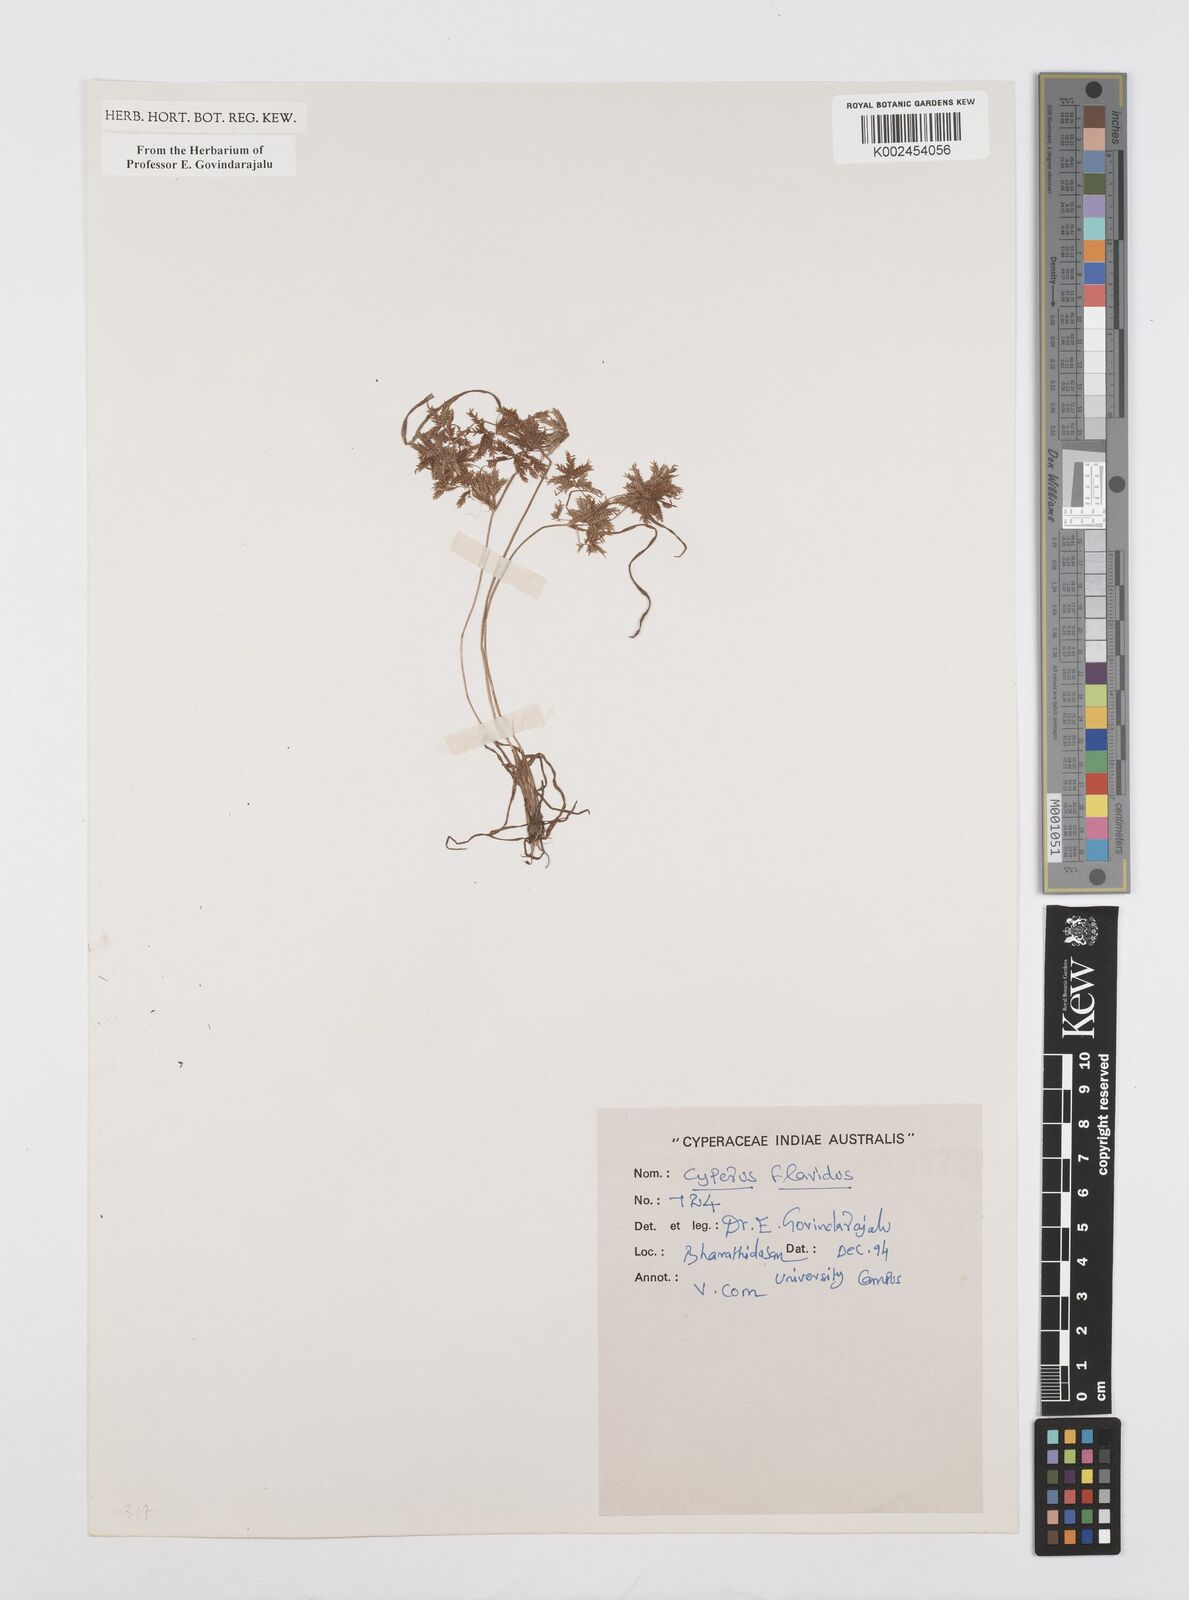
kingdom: Plantae
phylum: Tracheophyta
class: Liliopsida
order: Poales
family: Cyperaceae
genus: Cyperus
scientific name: Cyperus flavidus
